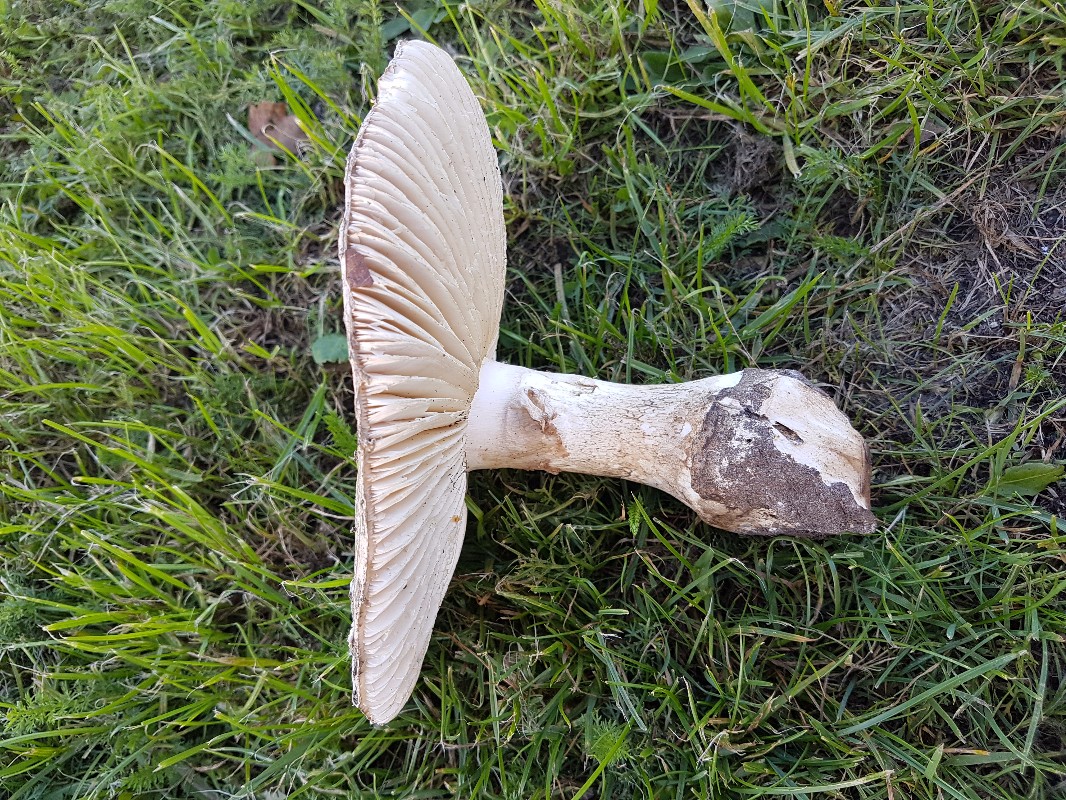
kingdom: Fungi
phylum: Basidiomycota
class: Agaricomycetes
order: Agaricales
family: Amanitaceae
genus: Amanita
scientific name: Amanita
